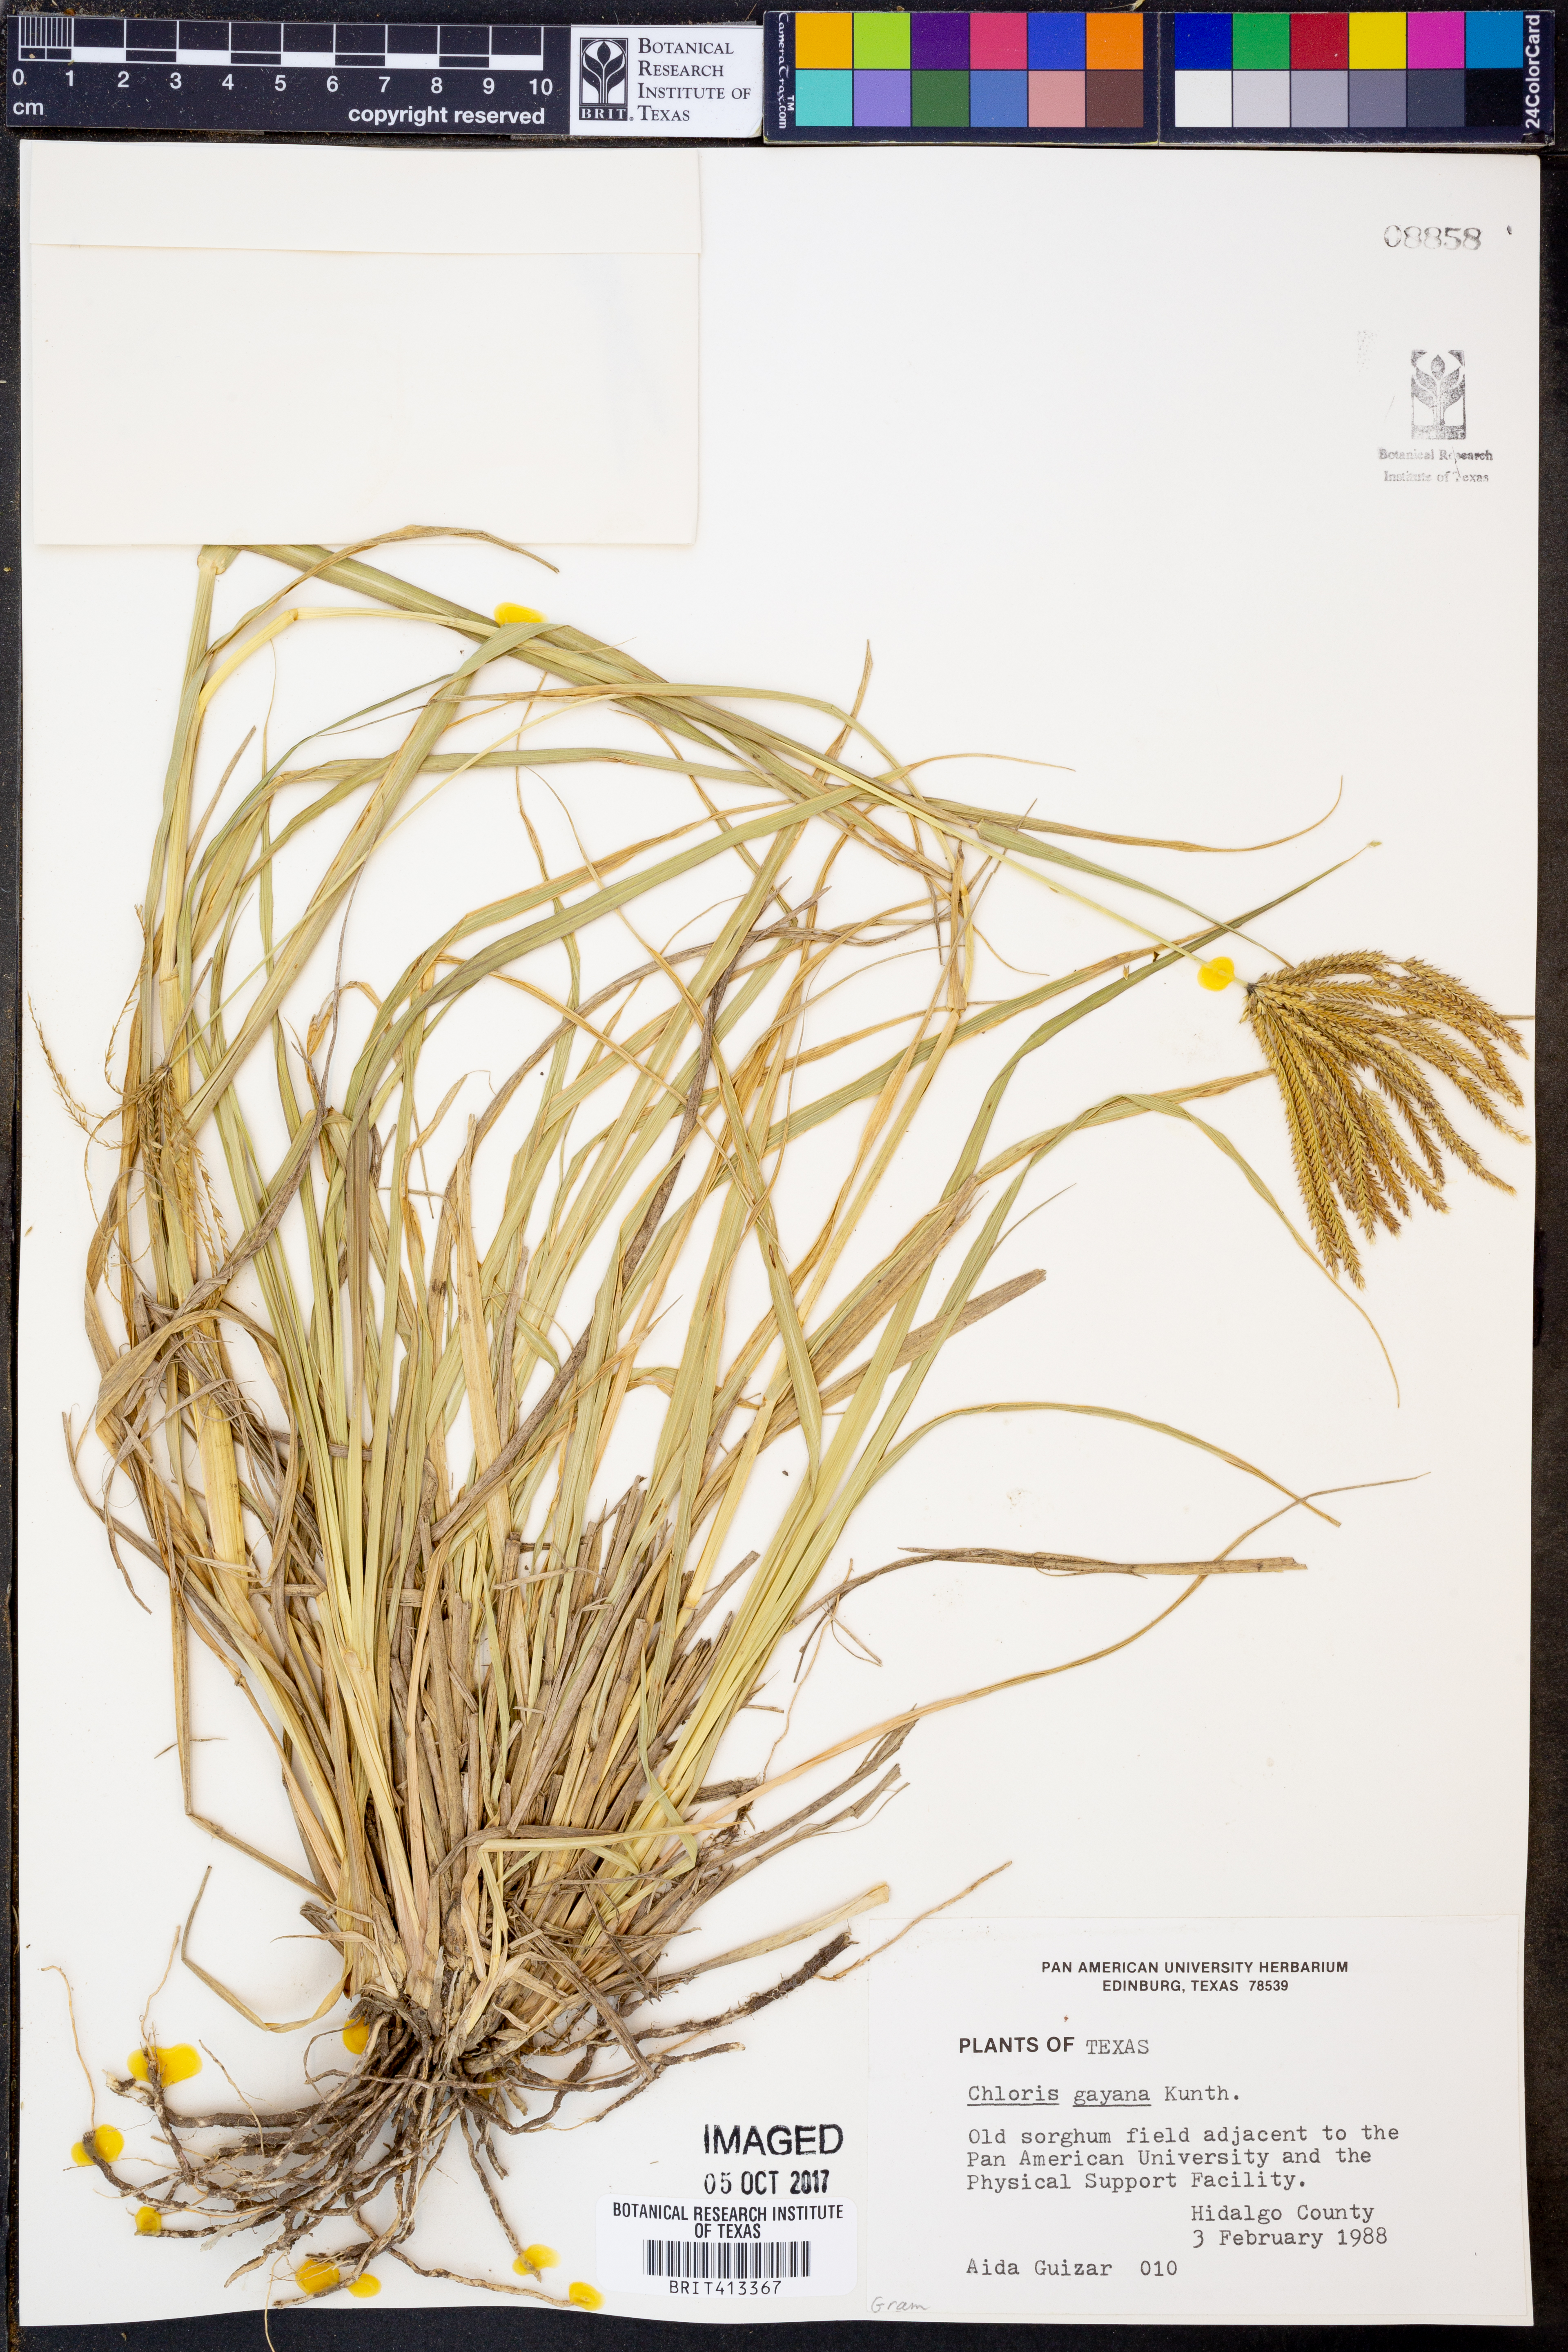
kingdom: Plantae
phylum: Tracheophyta
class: Liliopsida
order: Poales
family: Poaceae
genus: Chloris
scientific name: Chloris gayana
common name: Rhodes grass
